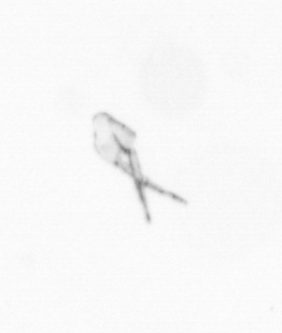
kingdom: Animalia
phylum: Arthropoda
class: Copepoda
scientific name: Copepoda
